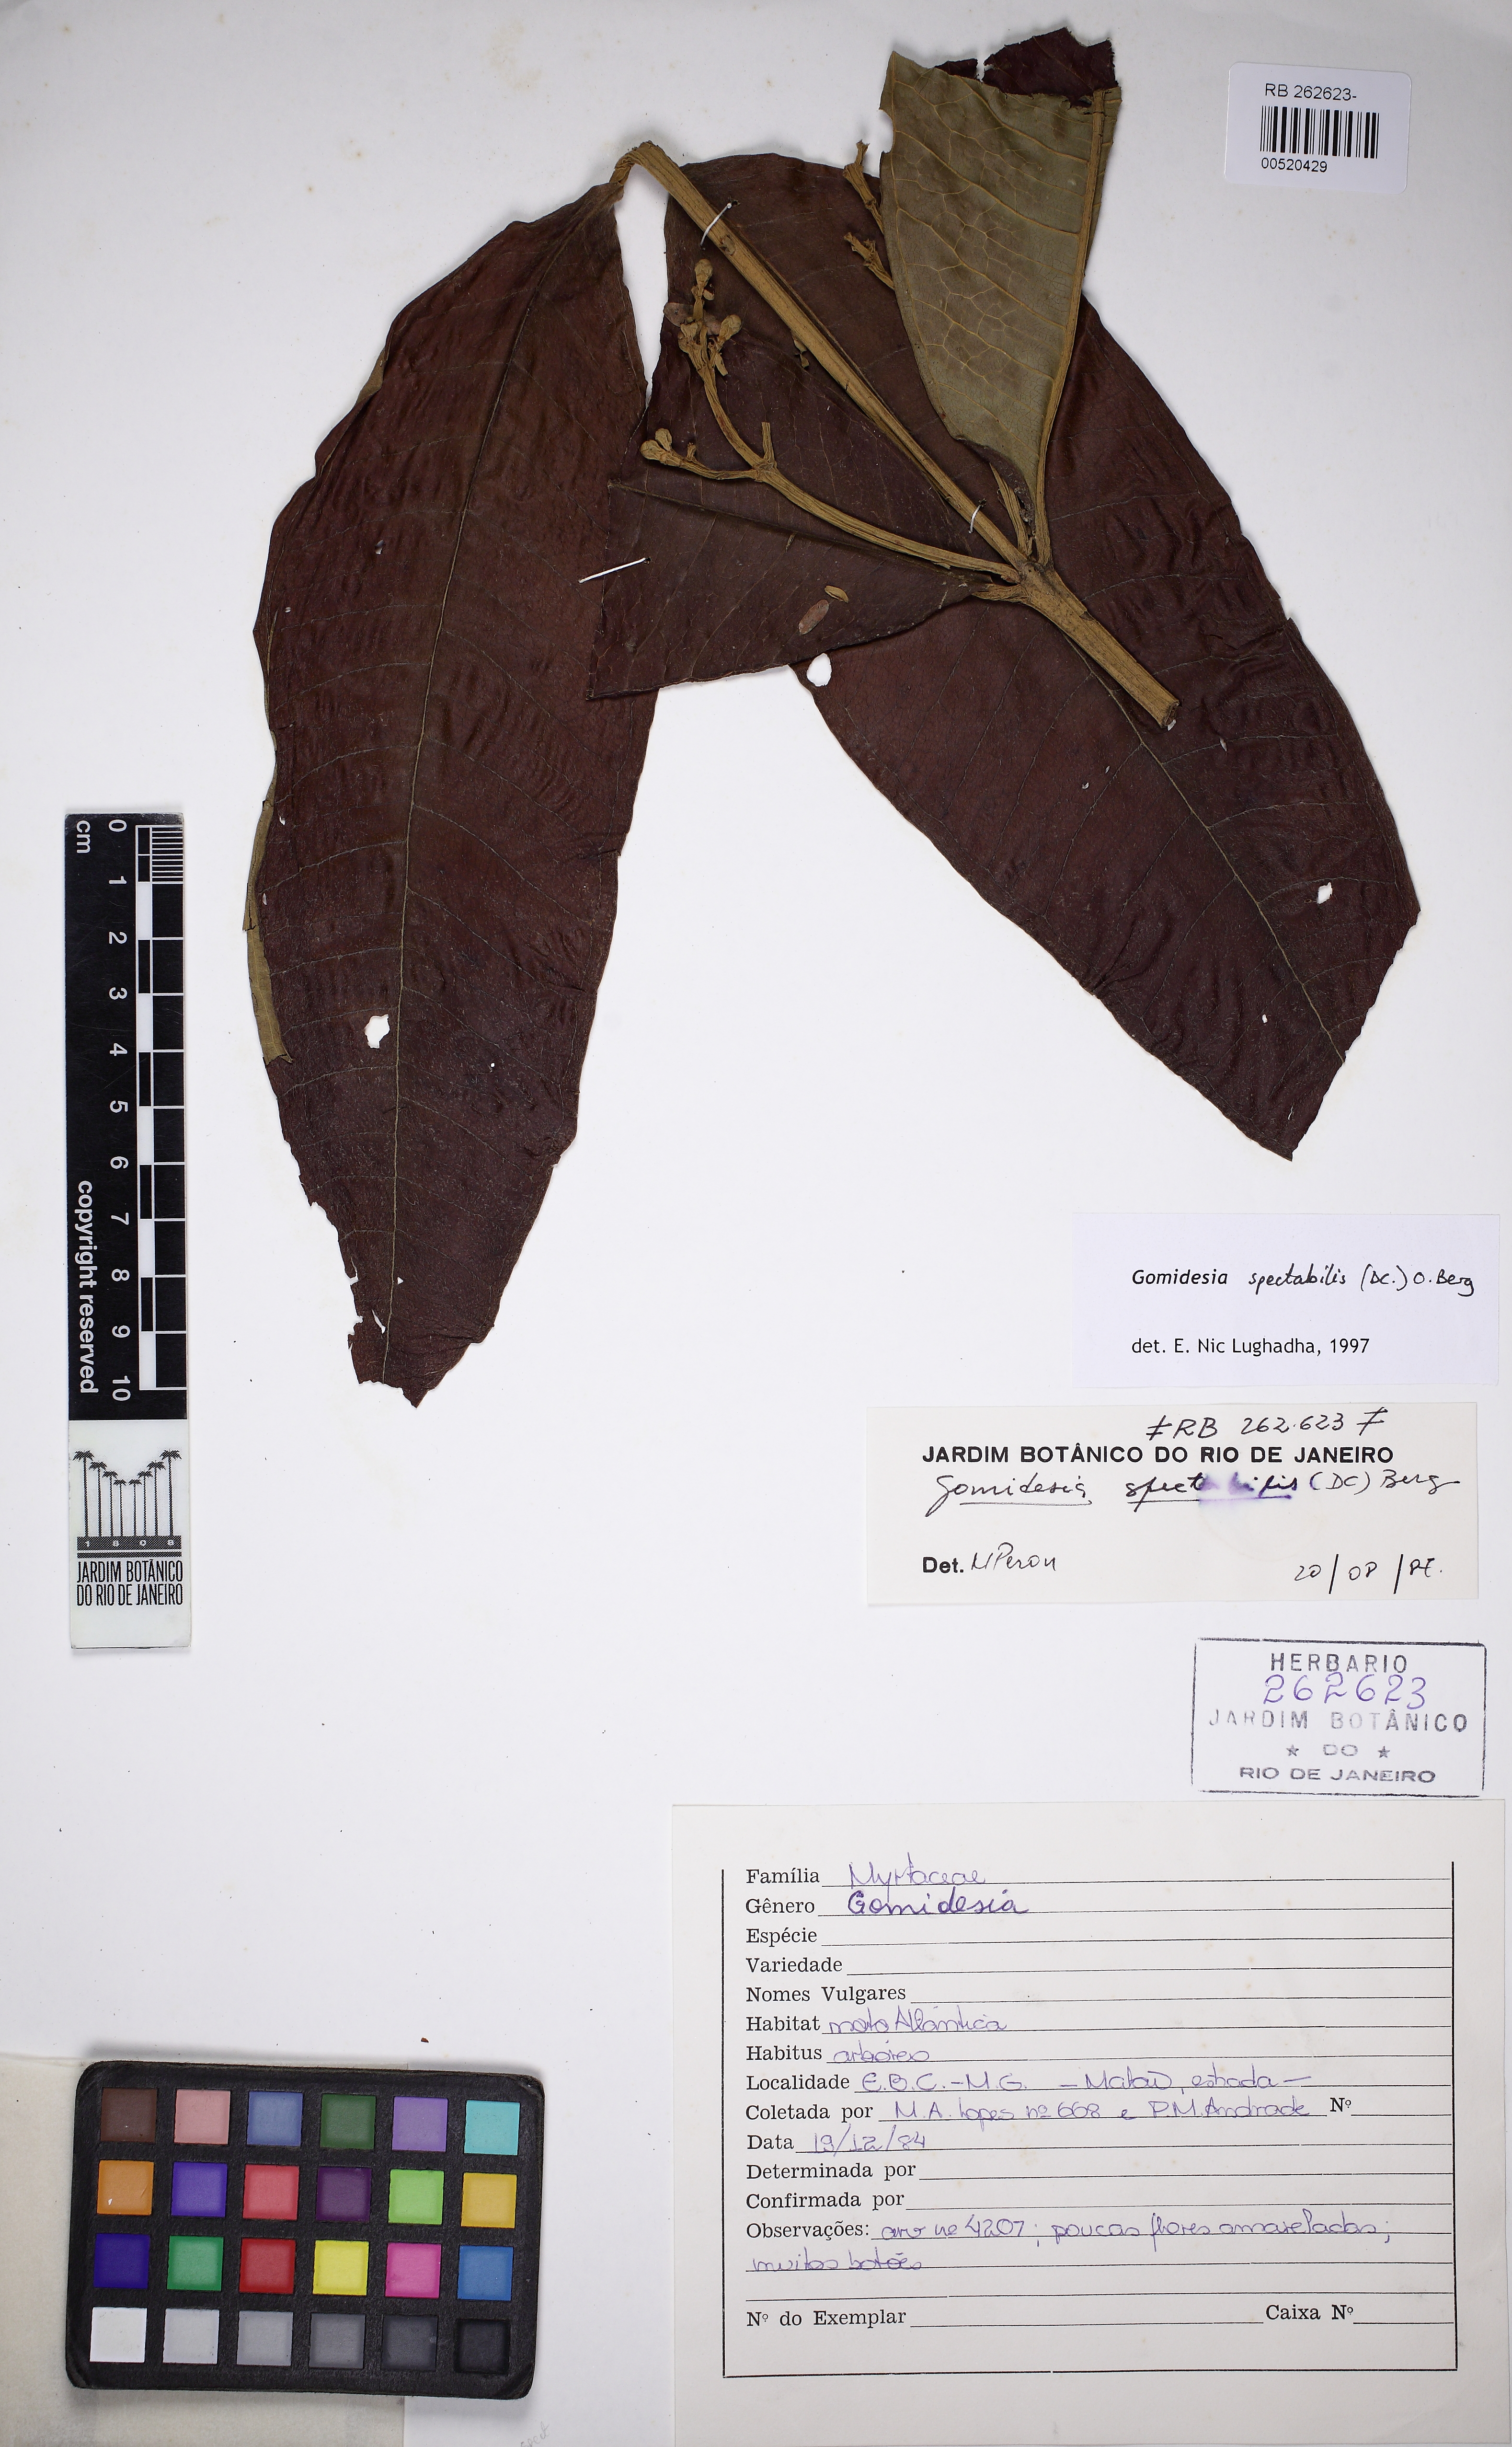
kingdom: Plantae
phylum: Tracheophyta
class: Magnoliopsida
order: Myrtales
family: Myrtaceae
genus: Myrcia
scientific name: Myrcia spectabilis
